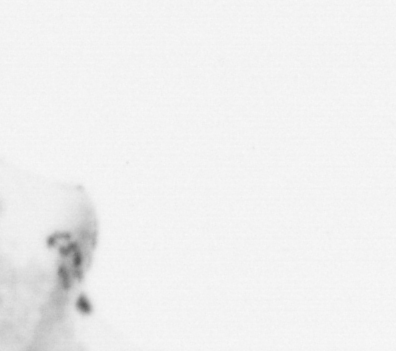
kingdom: Animalia
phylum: Chordata
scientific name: Chordata
